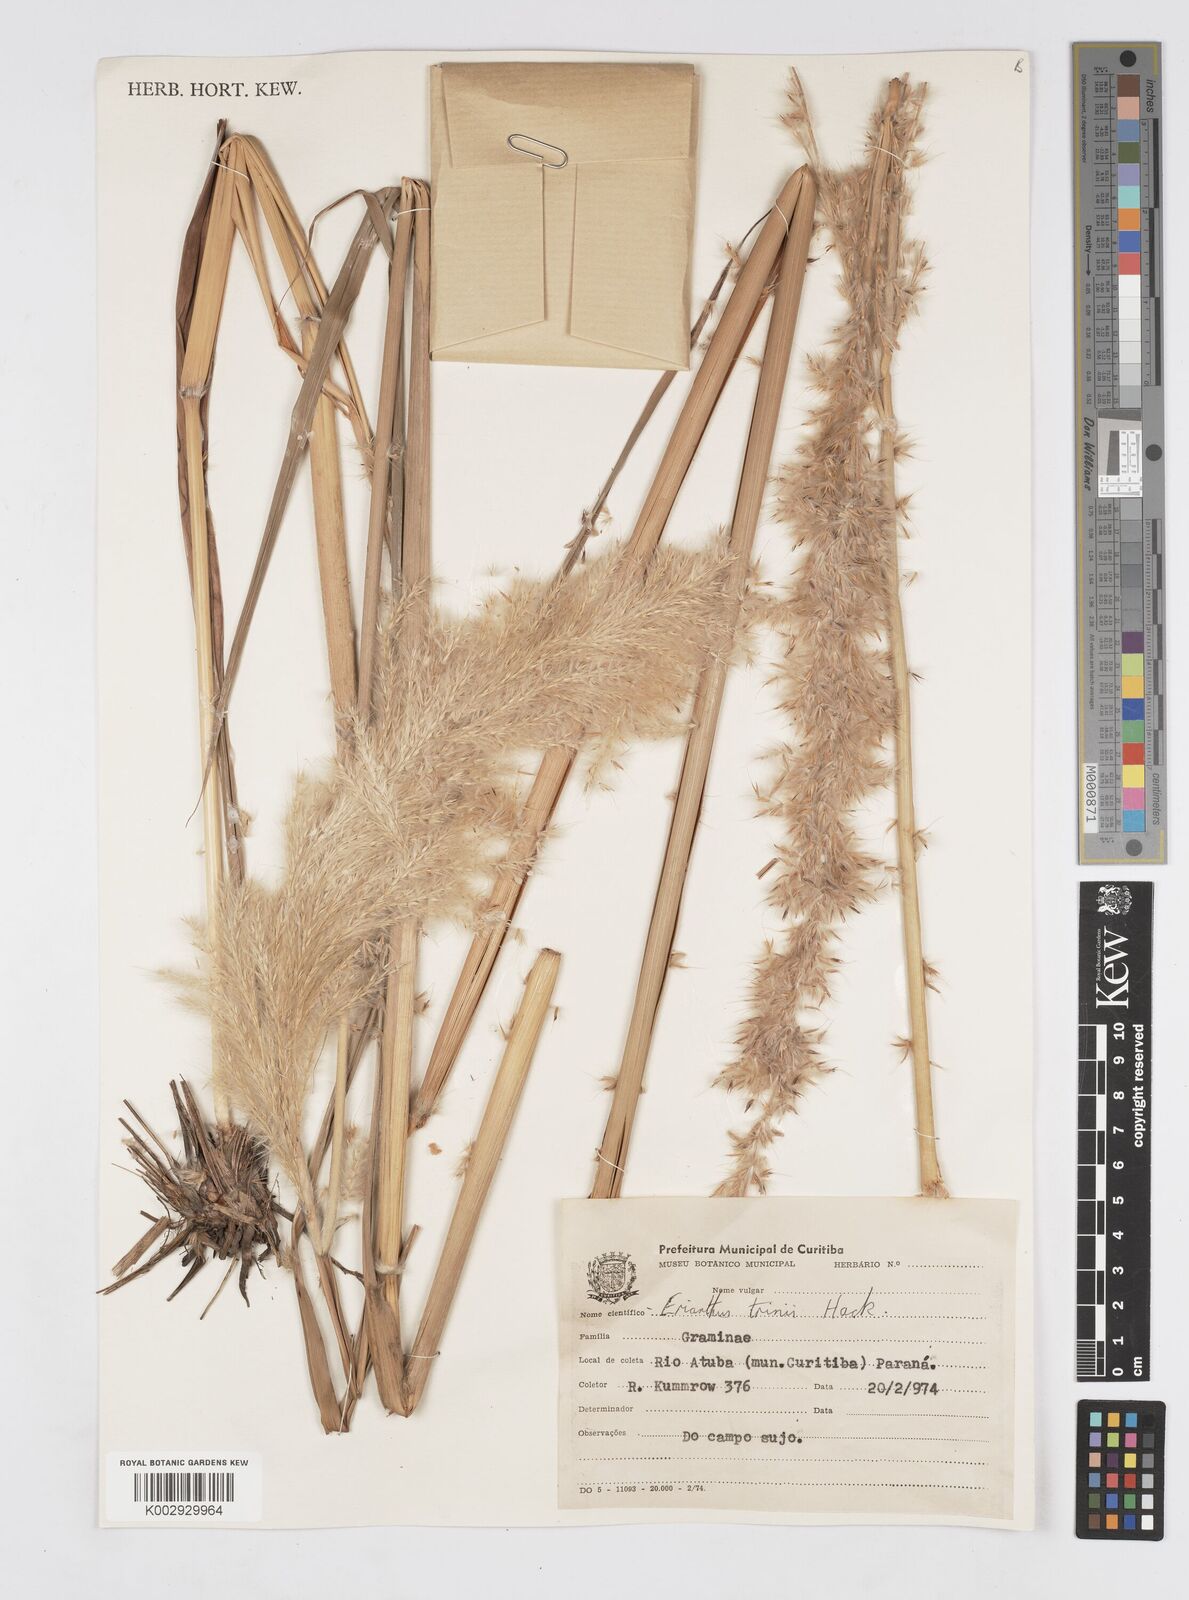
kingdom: Plantae
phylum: Tracheophyta
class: Liliopsida
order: Poales
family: Poaceae
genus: Erianthus
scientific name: Erianthus asper
